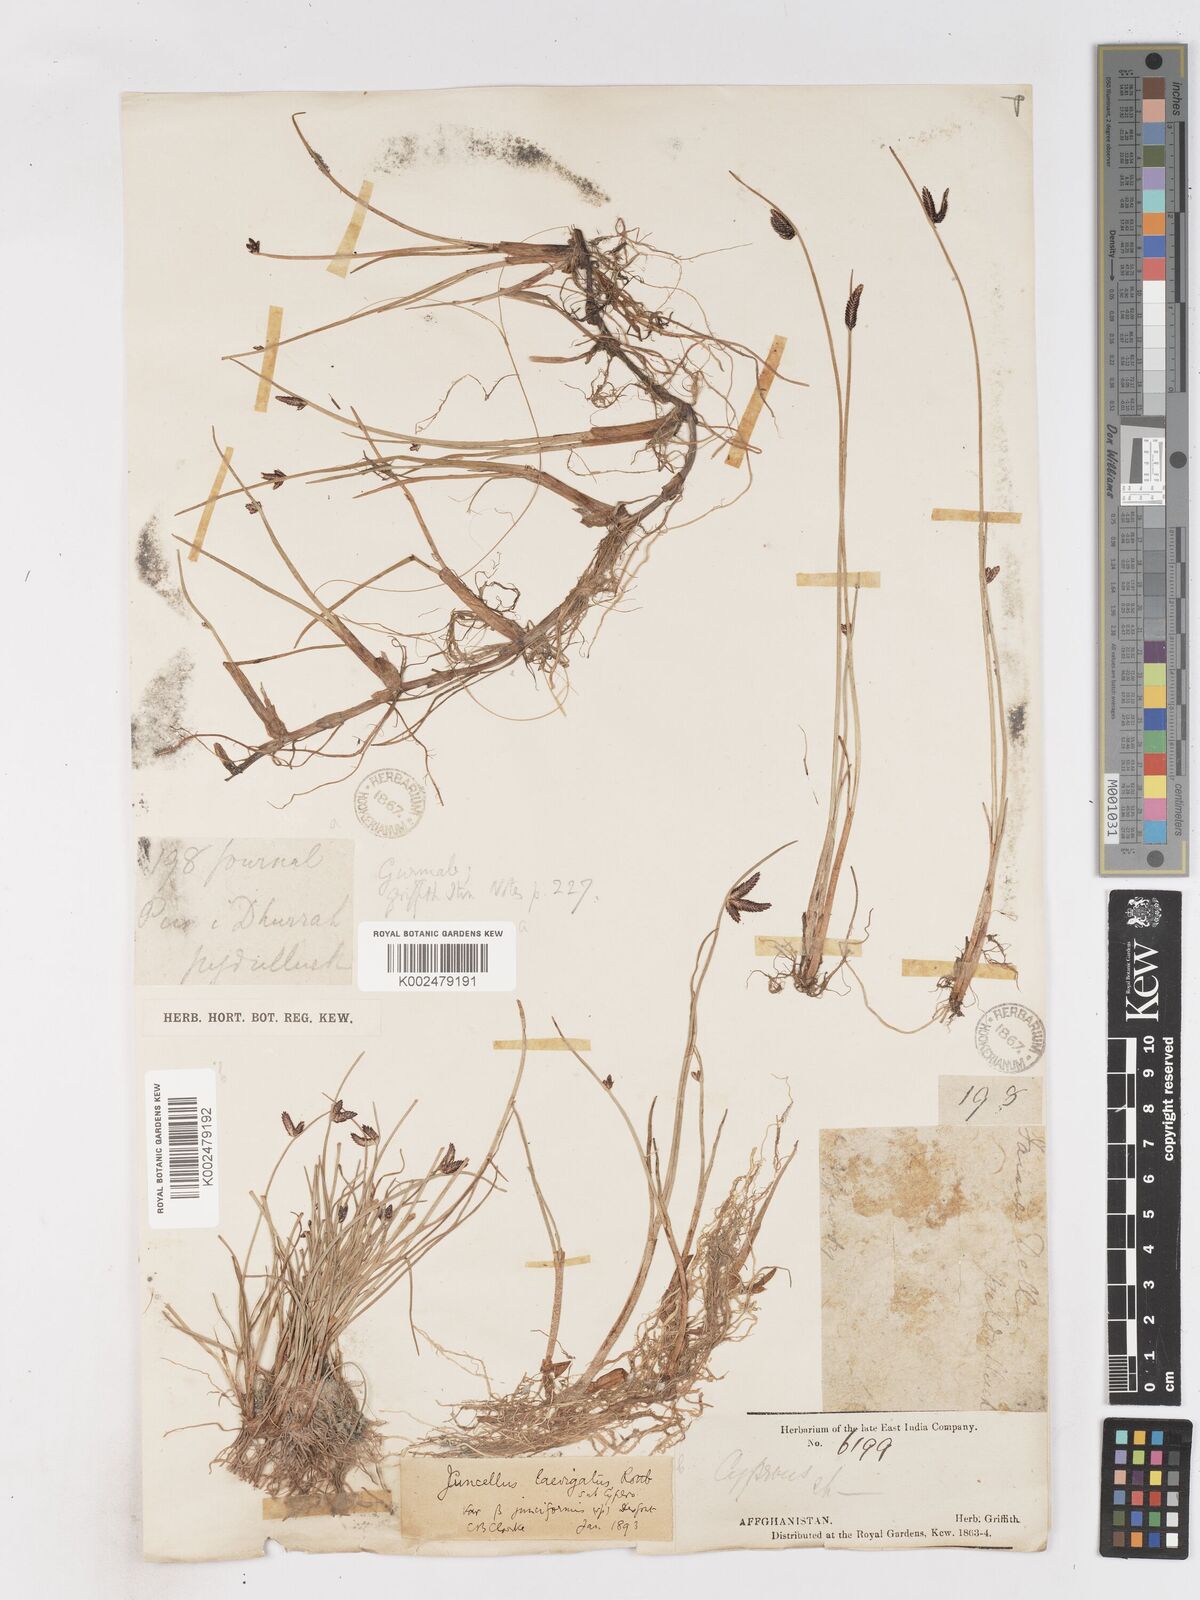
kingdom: Plantae
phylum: Tracheophyta
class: Liliopsida
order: Poales
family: Cyperaceae
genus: Cyperus
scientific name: Cyperus laevigatus
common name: Smooth flat sedge
